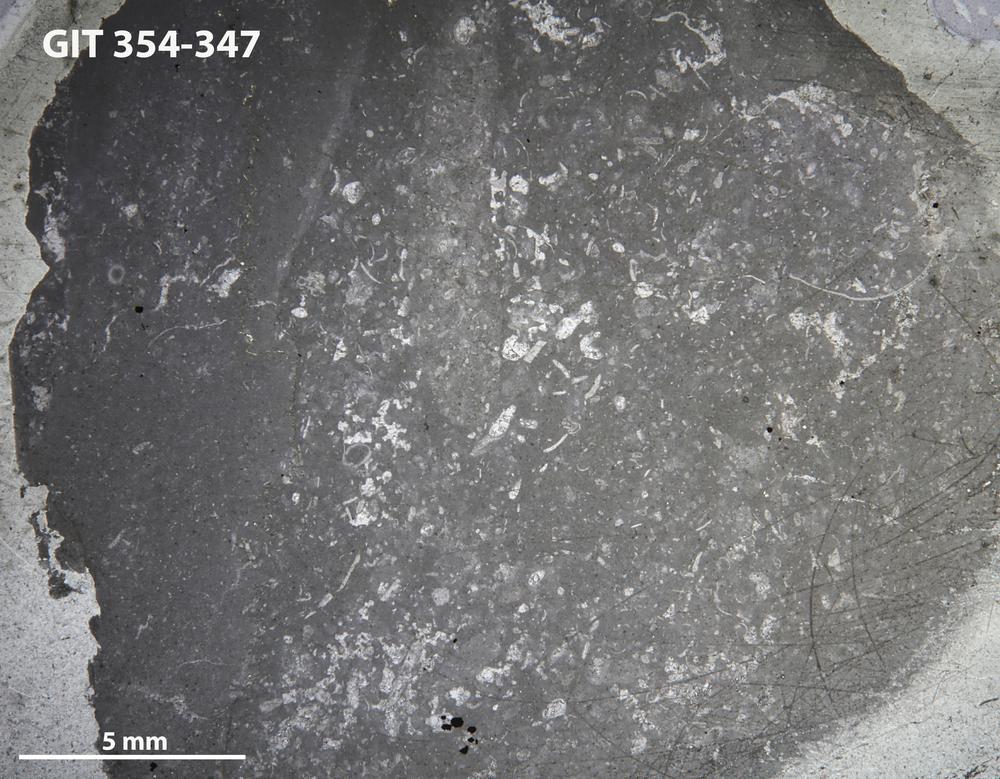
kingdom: Animalia
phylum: Porifera
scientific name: Porifera
